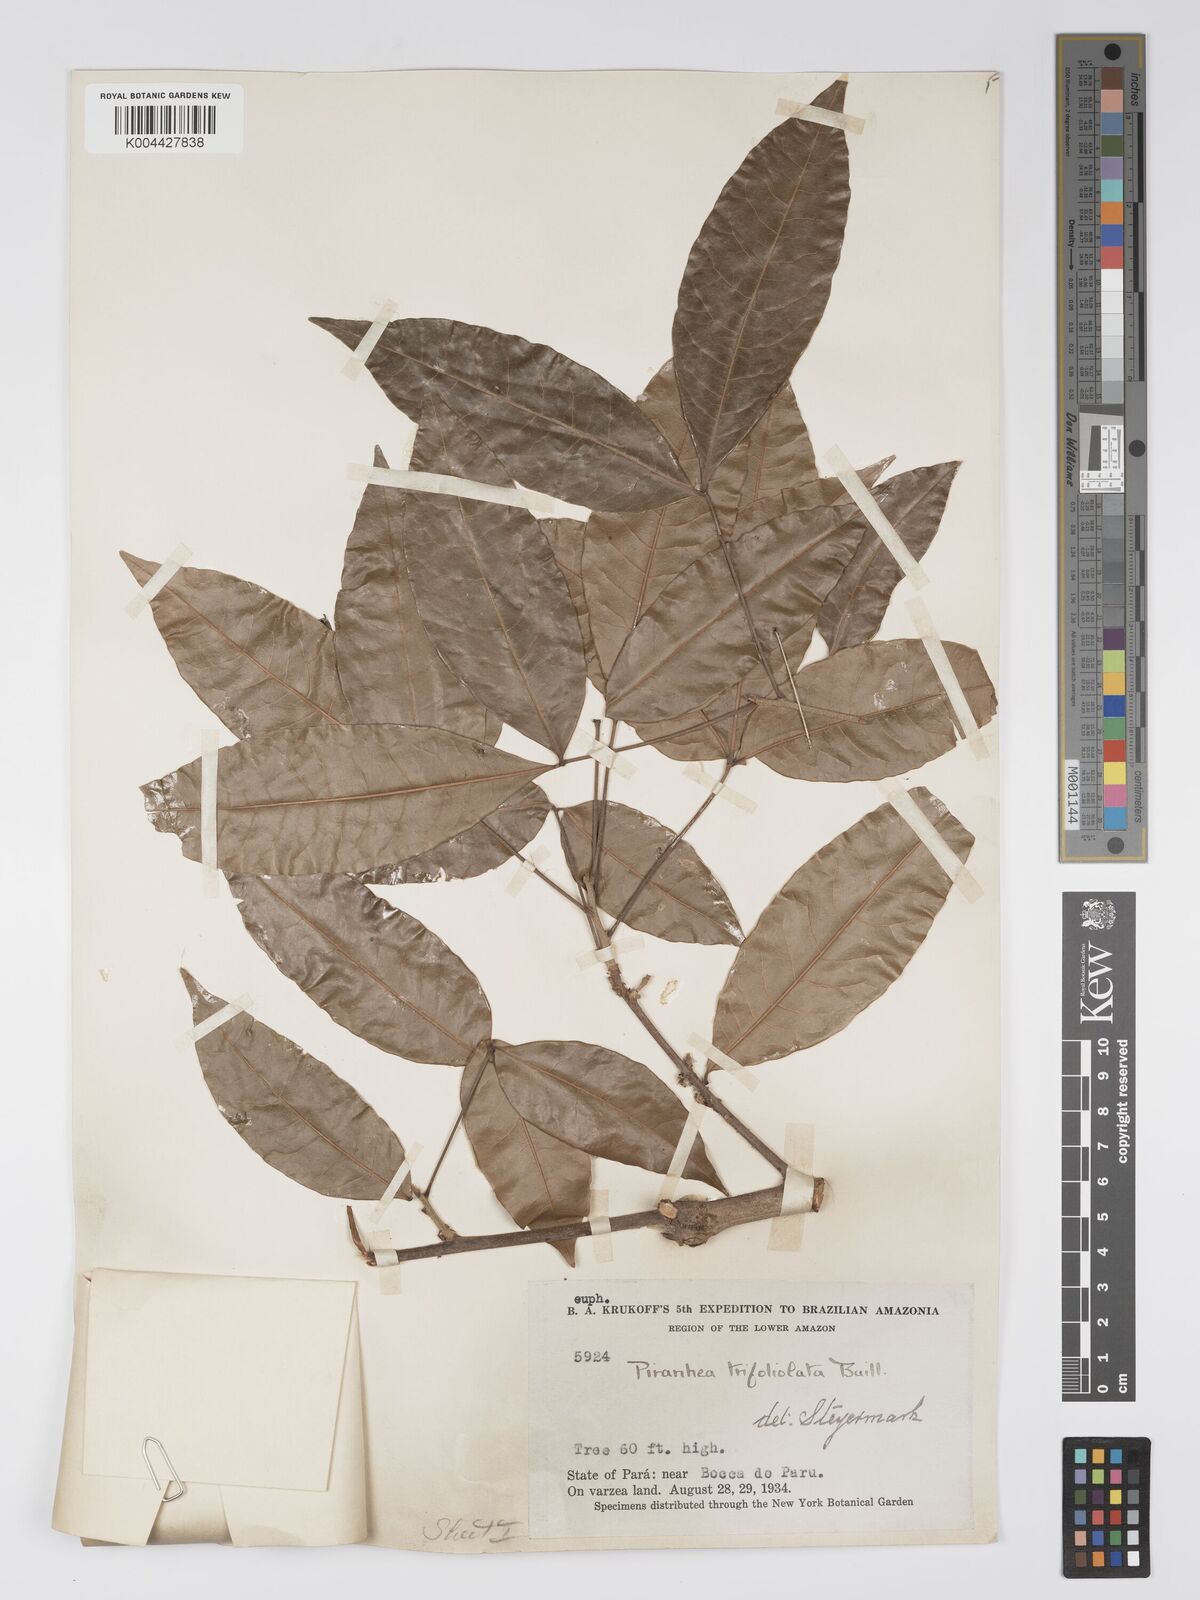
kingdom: Plantae
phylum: Tracheophyta
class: Magnoliopsida
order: Malpighiales
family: Picrodendraceae
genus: Piranhea
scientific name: Piranhea trifoliolata
